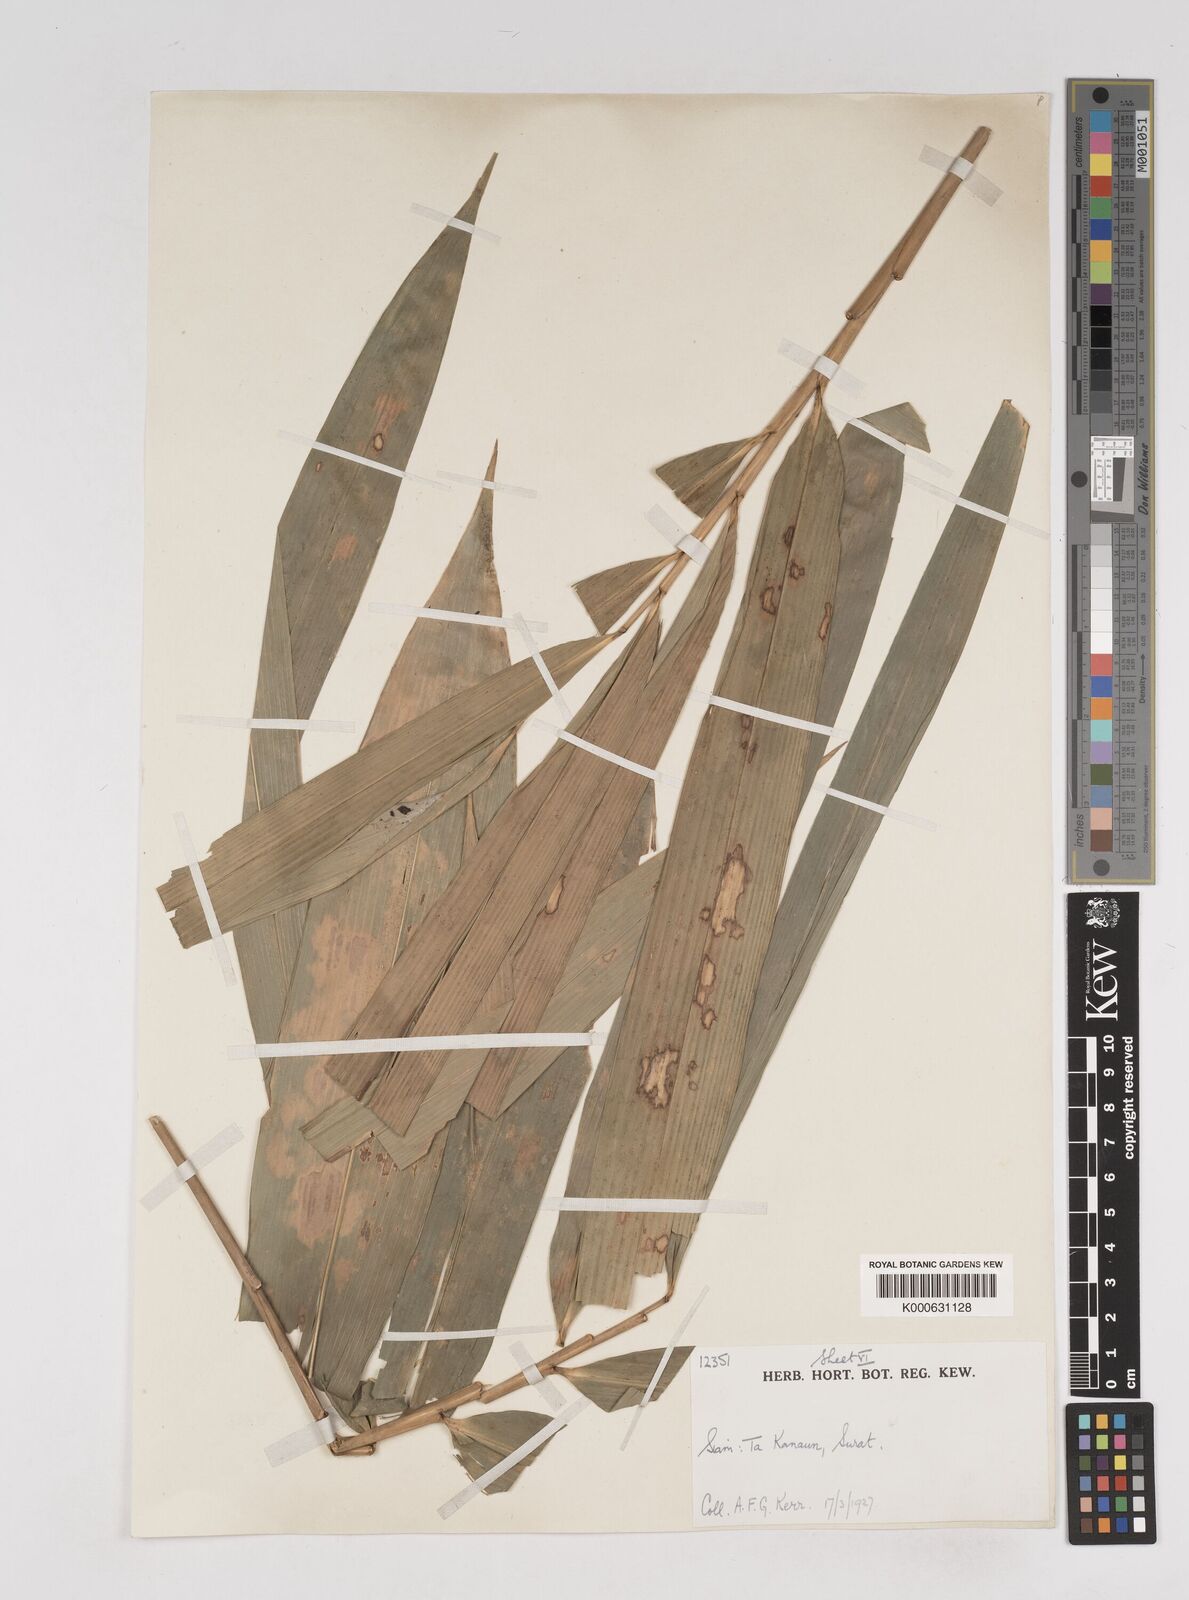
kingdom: Plantae
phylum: Tracheophyta
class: Liliopsida
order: Poales
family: Poaceae
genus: Gigantochloa
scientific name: Gigantochloa
